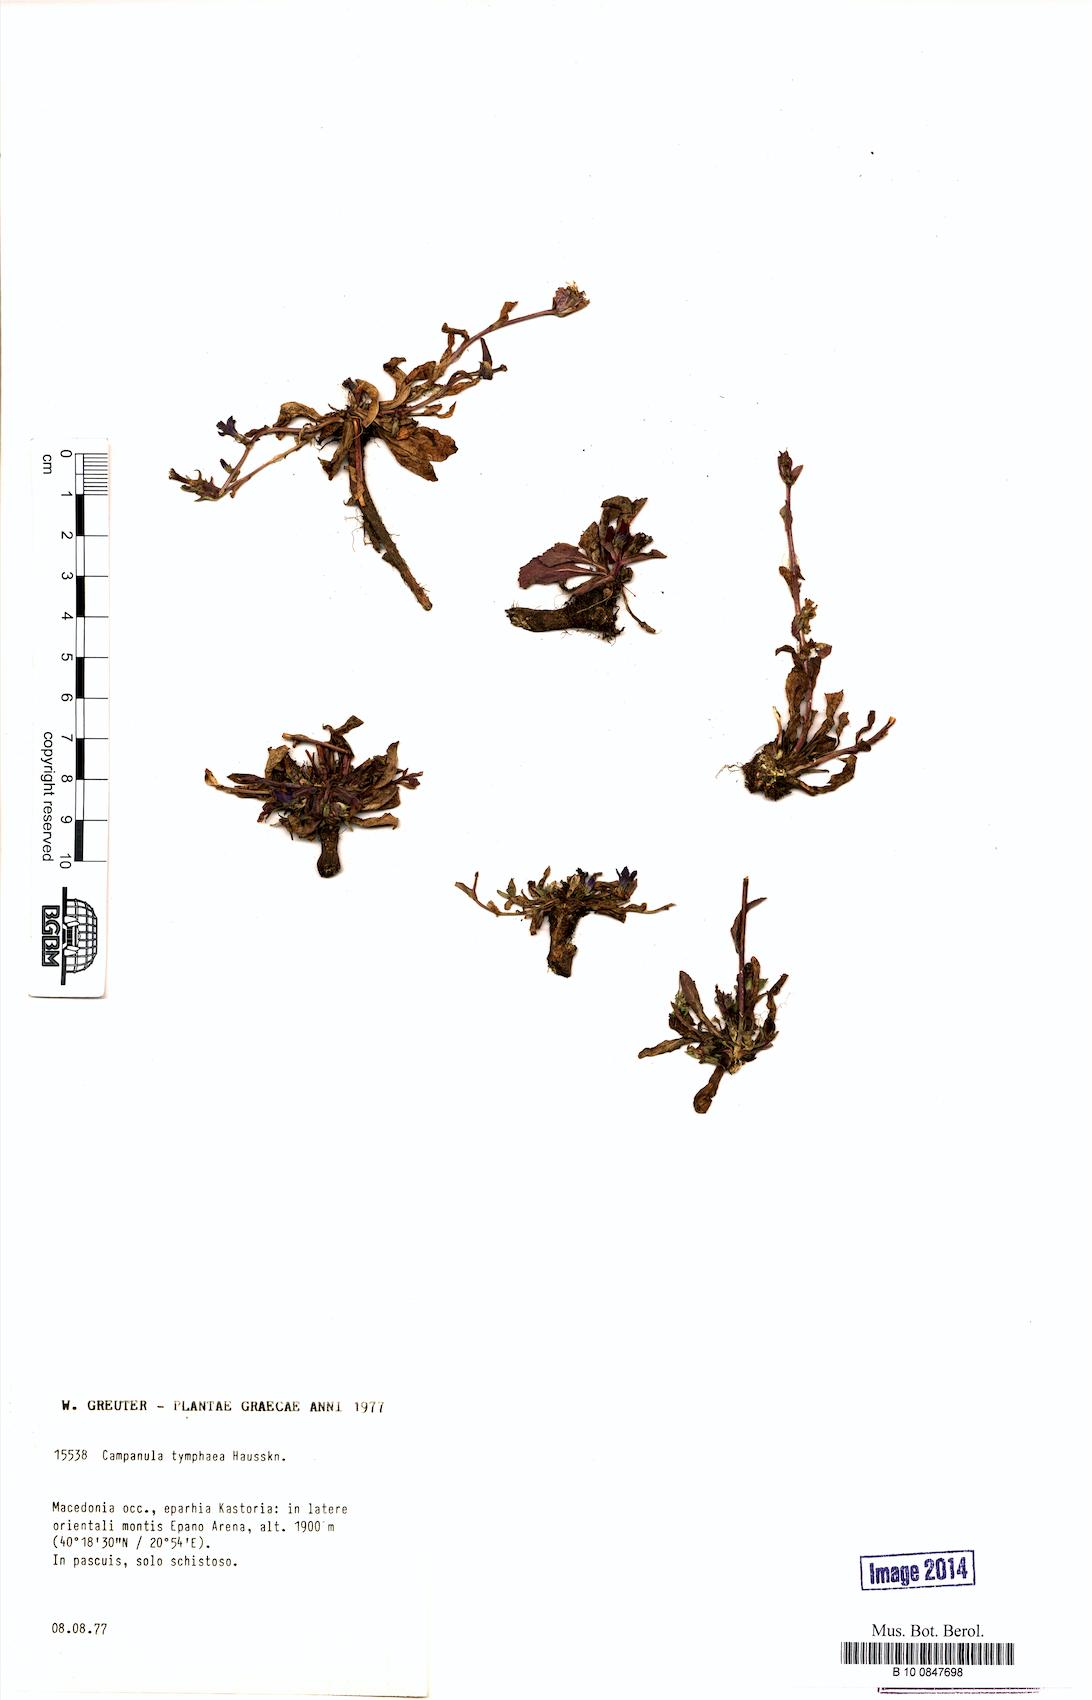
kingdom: Plantae
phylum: Tracheophyta
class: Magnoliopsida
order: Asterales
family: Campanulaceae
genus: Campanula
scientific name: Campanula tymphaea
